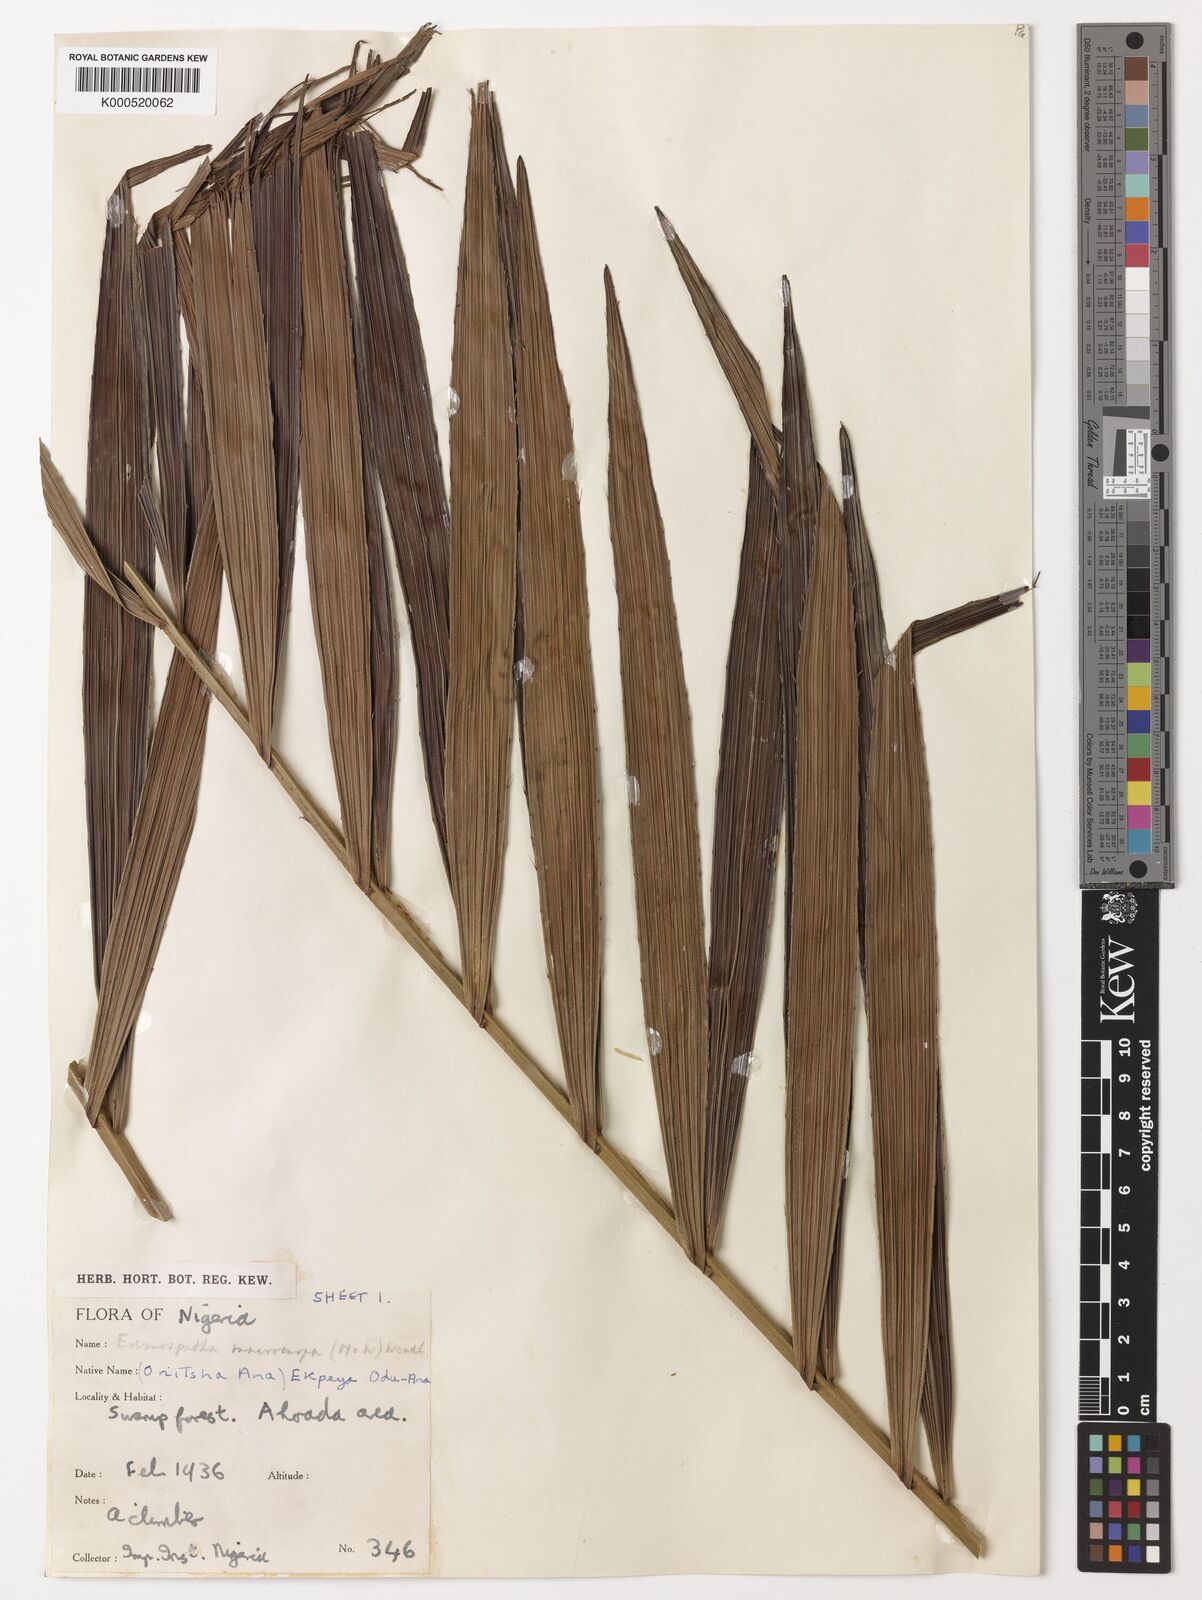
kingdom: Plantae
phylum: Tracheophyta
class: Liliopsida
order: Arecales
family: Arecaceae
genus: Eremospatha
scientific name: Eremospatha
